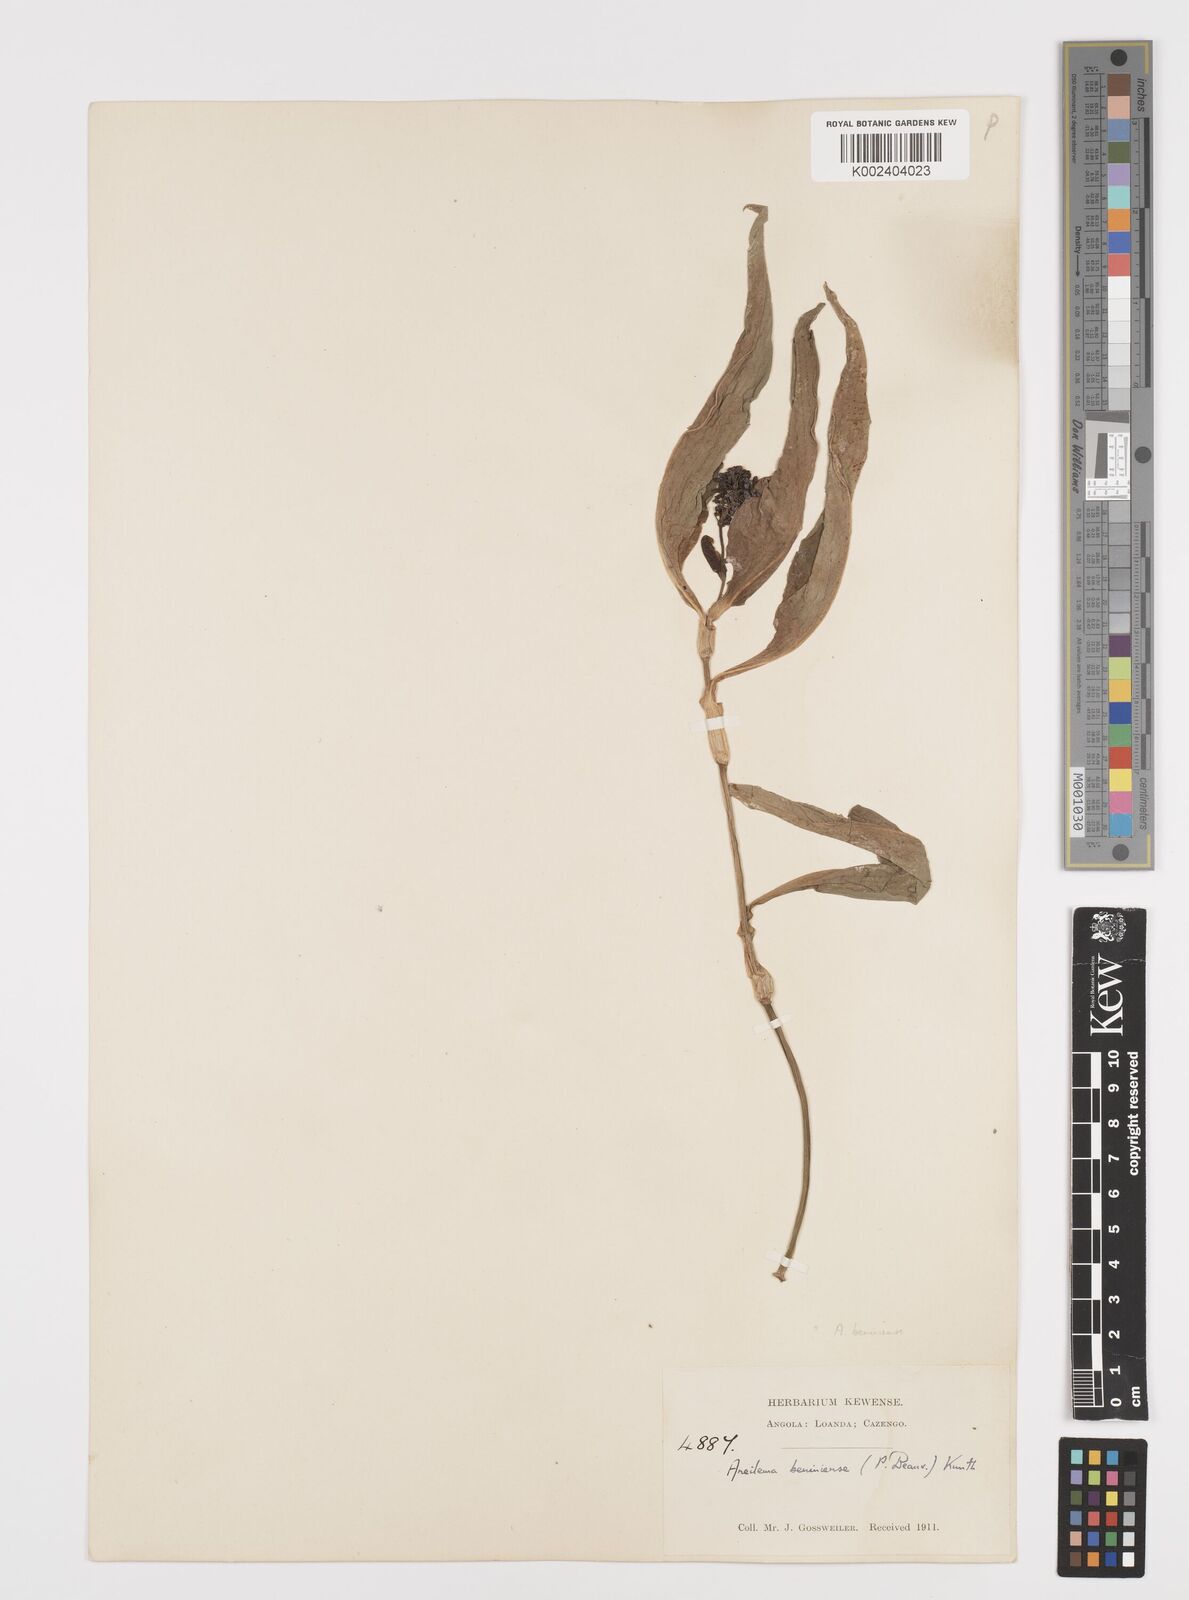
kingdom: Plantae
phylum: Tracheophyta
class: Liliopsida
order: Commelinales
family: Commelinaceae
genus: Aneilema
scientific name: Aneilema beniniense
